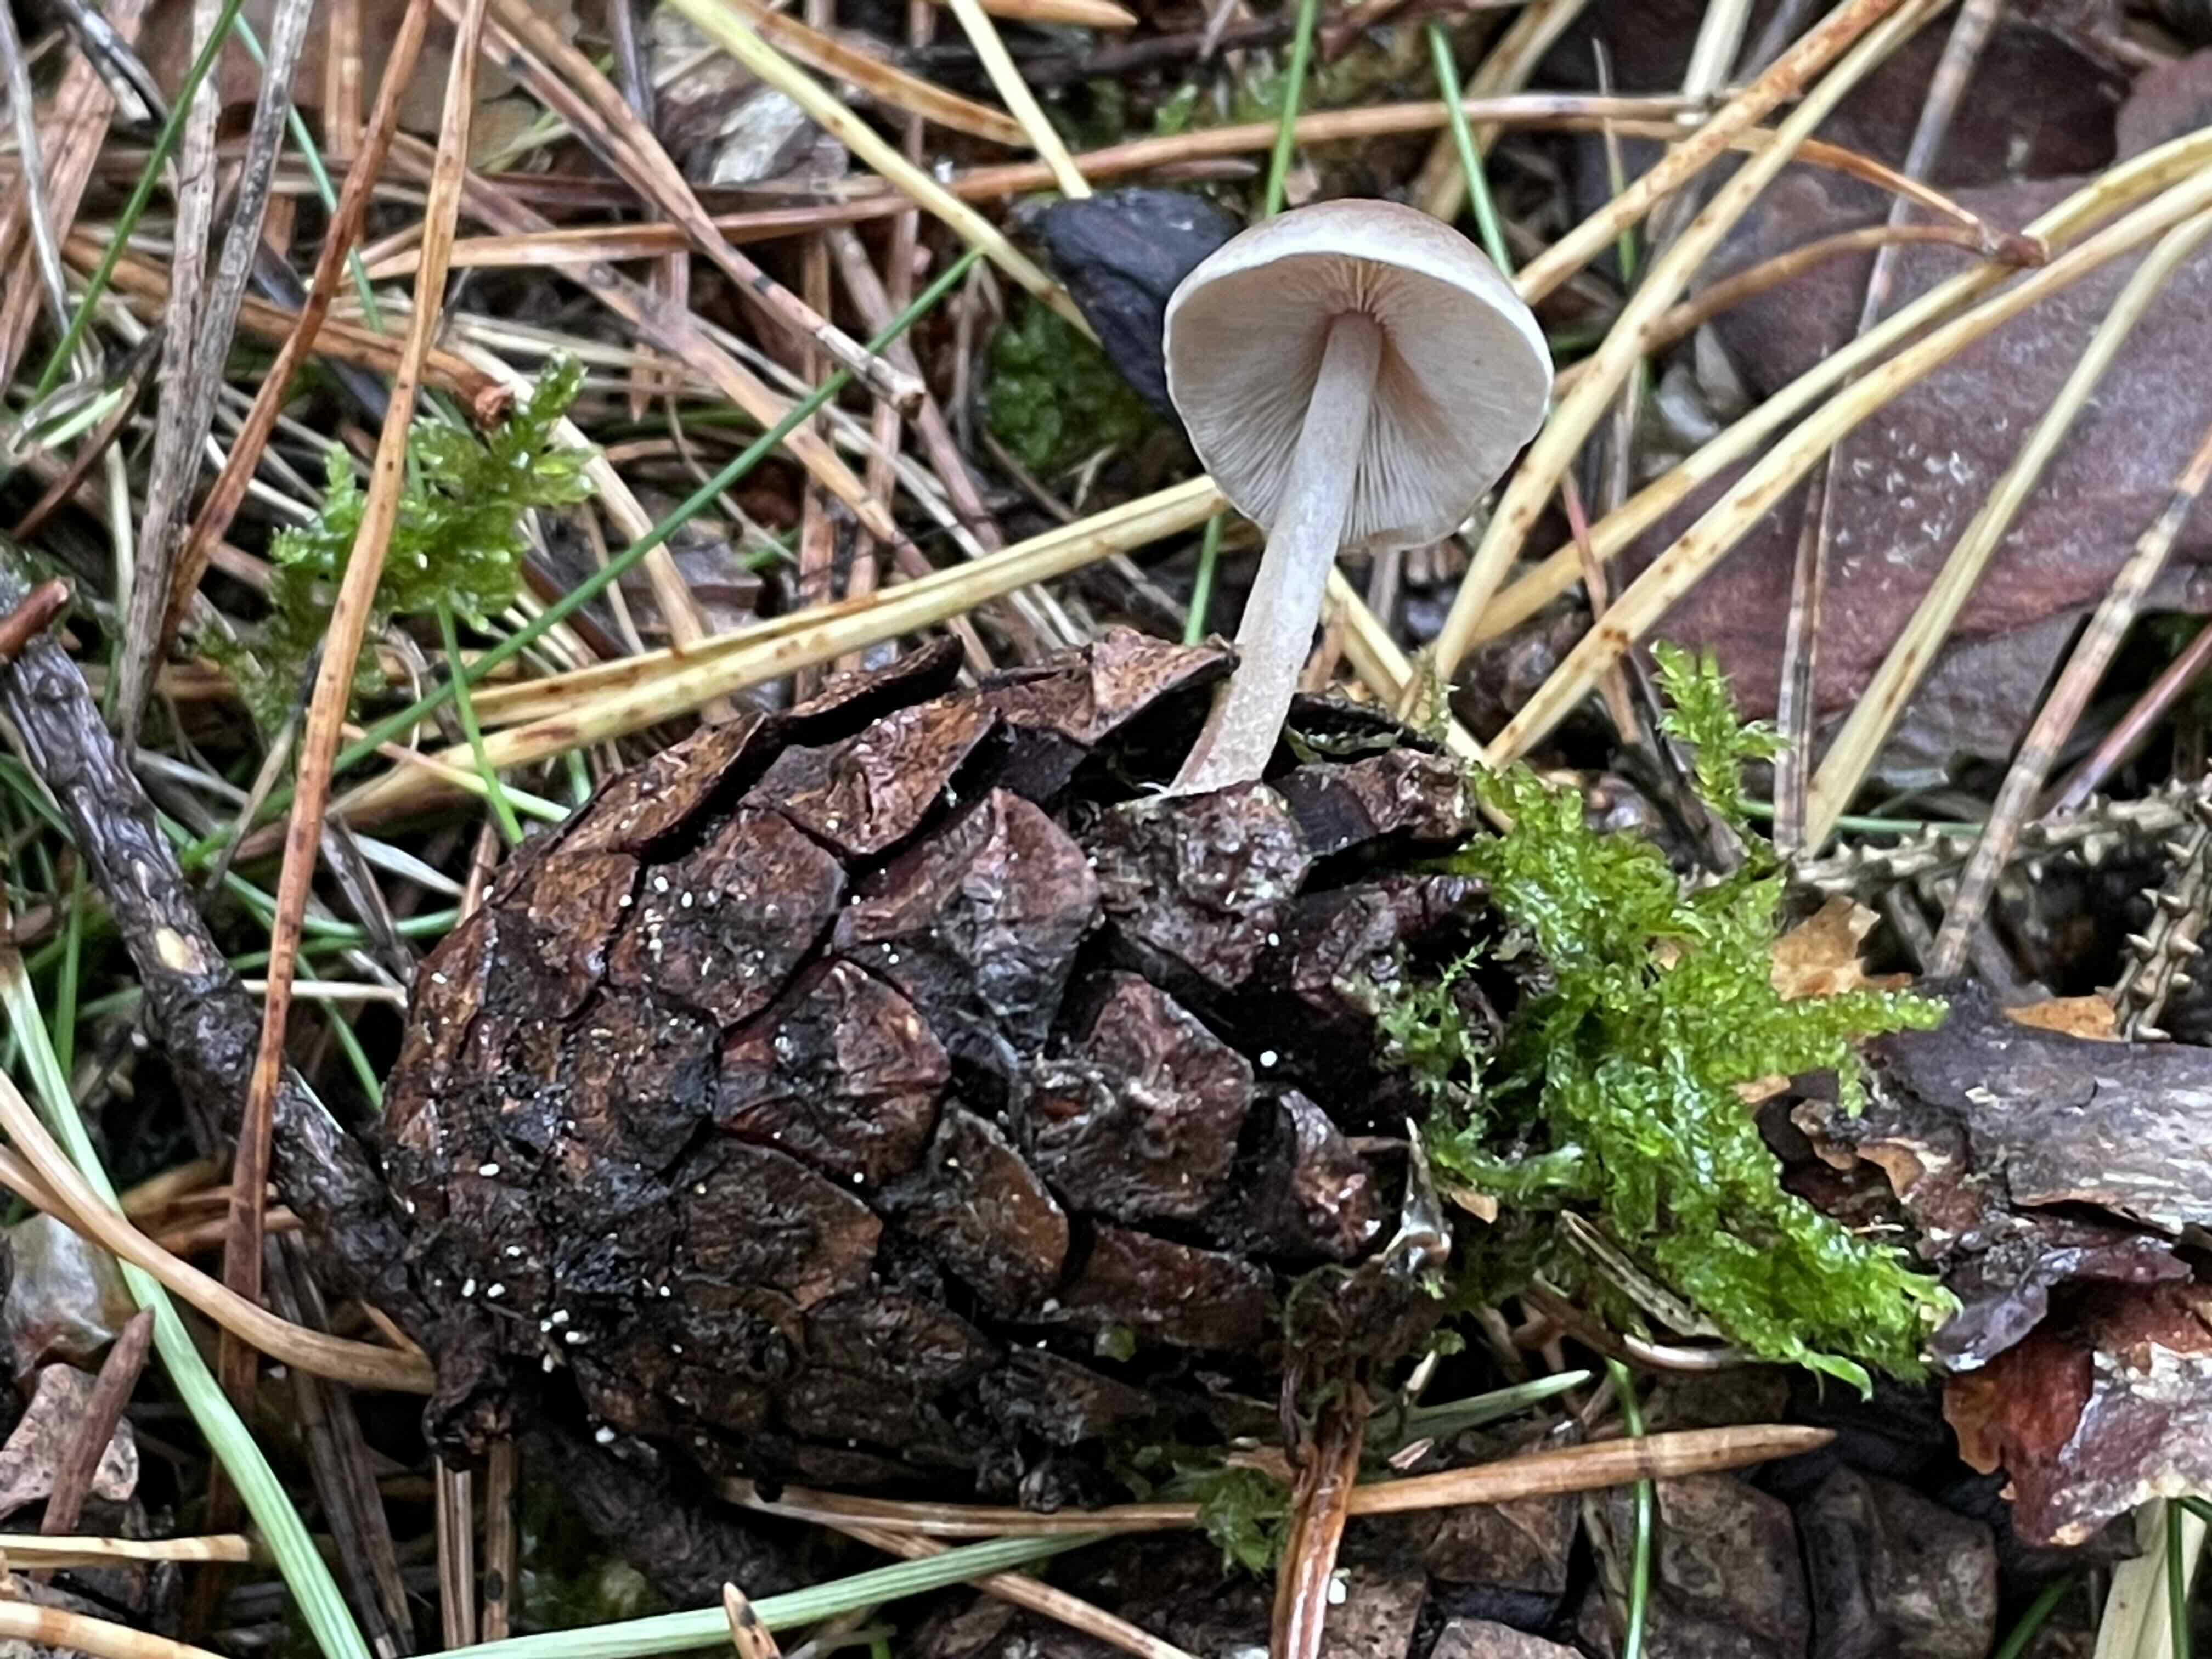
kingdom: Fungi
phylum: Basidiomycota
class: Agaricomycetes
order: Agaricales
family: Marasmiaceae
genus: Baeospora
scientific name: Baeospora myosura
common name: koglebruskhat
